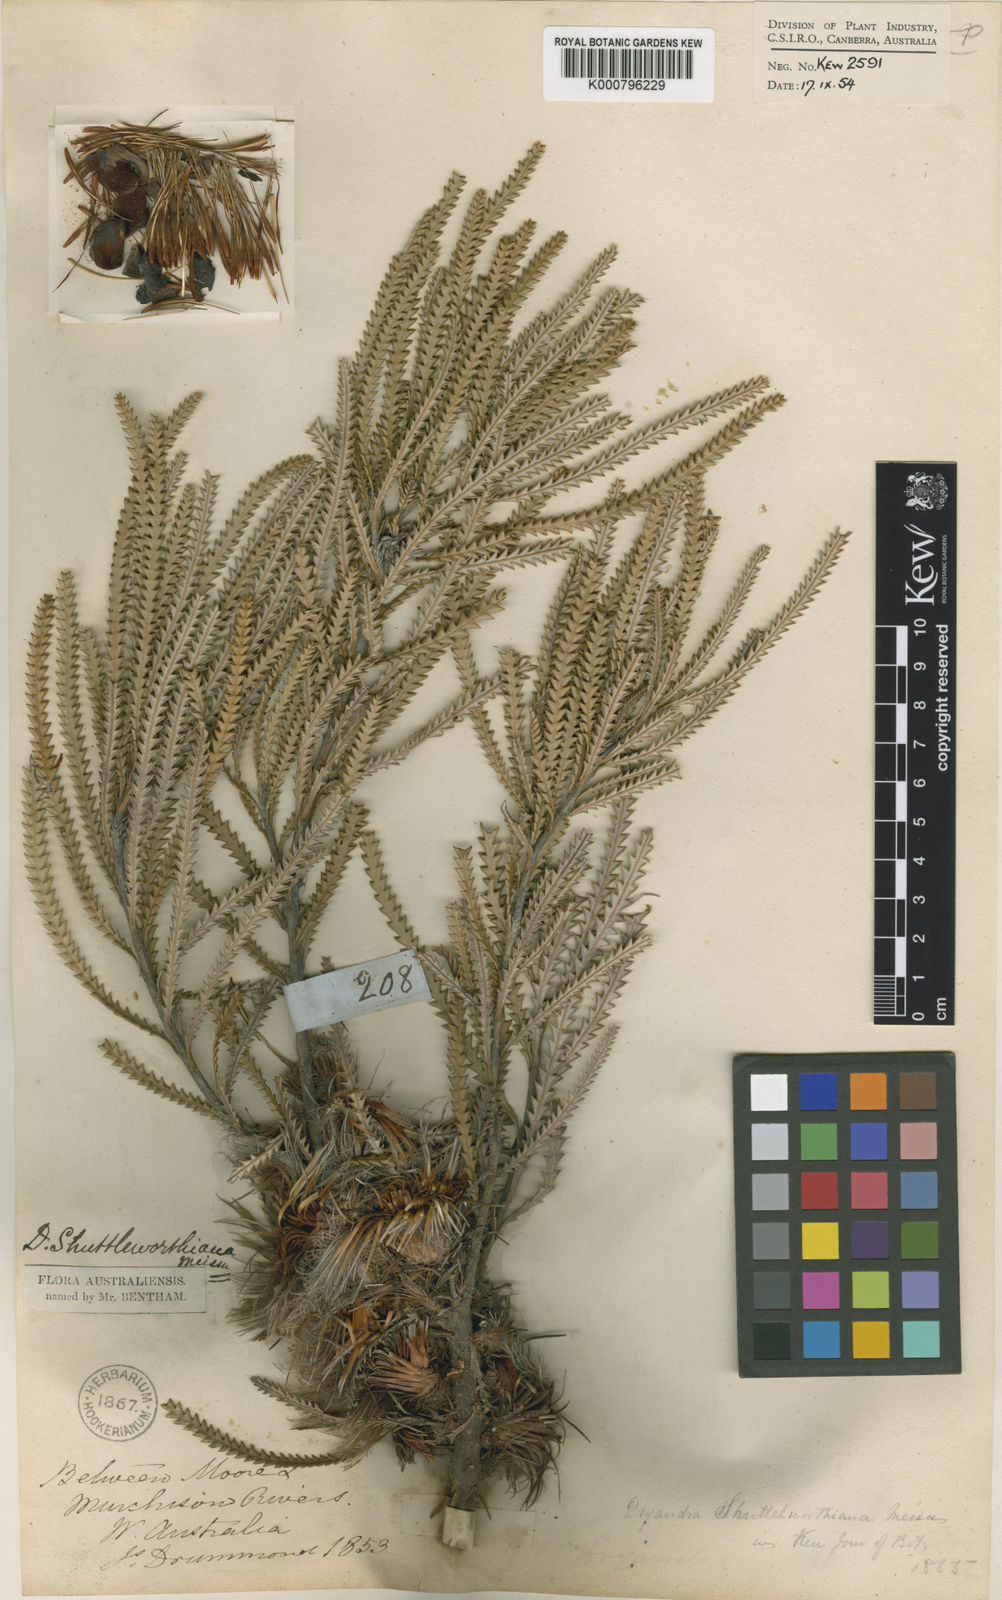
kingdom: Plantae
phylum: Tracheophyta
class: Magnoliopsida
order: Proteales
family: Proteaceae
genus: Banksia
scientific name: Banksia shuttleworthiana
